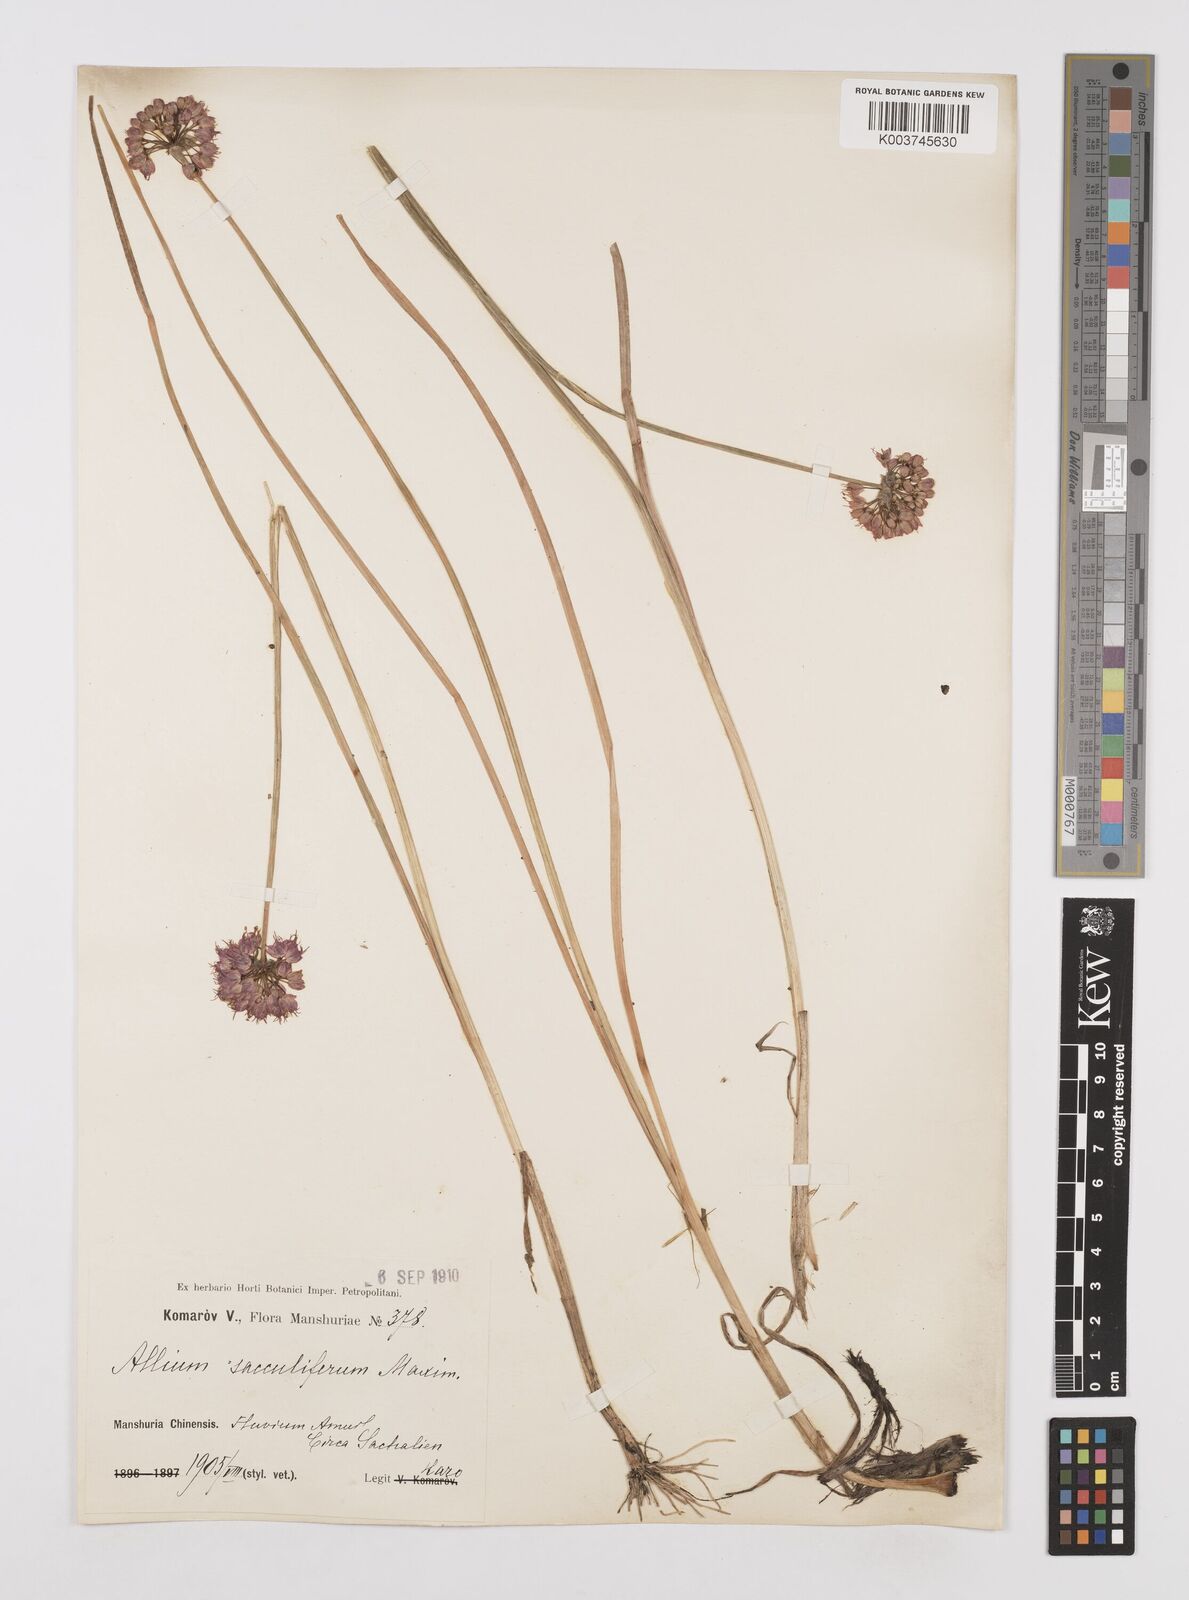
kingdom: Plantae
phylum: Tracheophyta
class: Liliopsida
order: Asparagales
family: Amaryllidaceae
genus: Allium
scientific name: Allium sacculiferum
